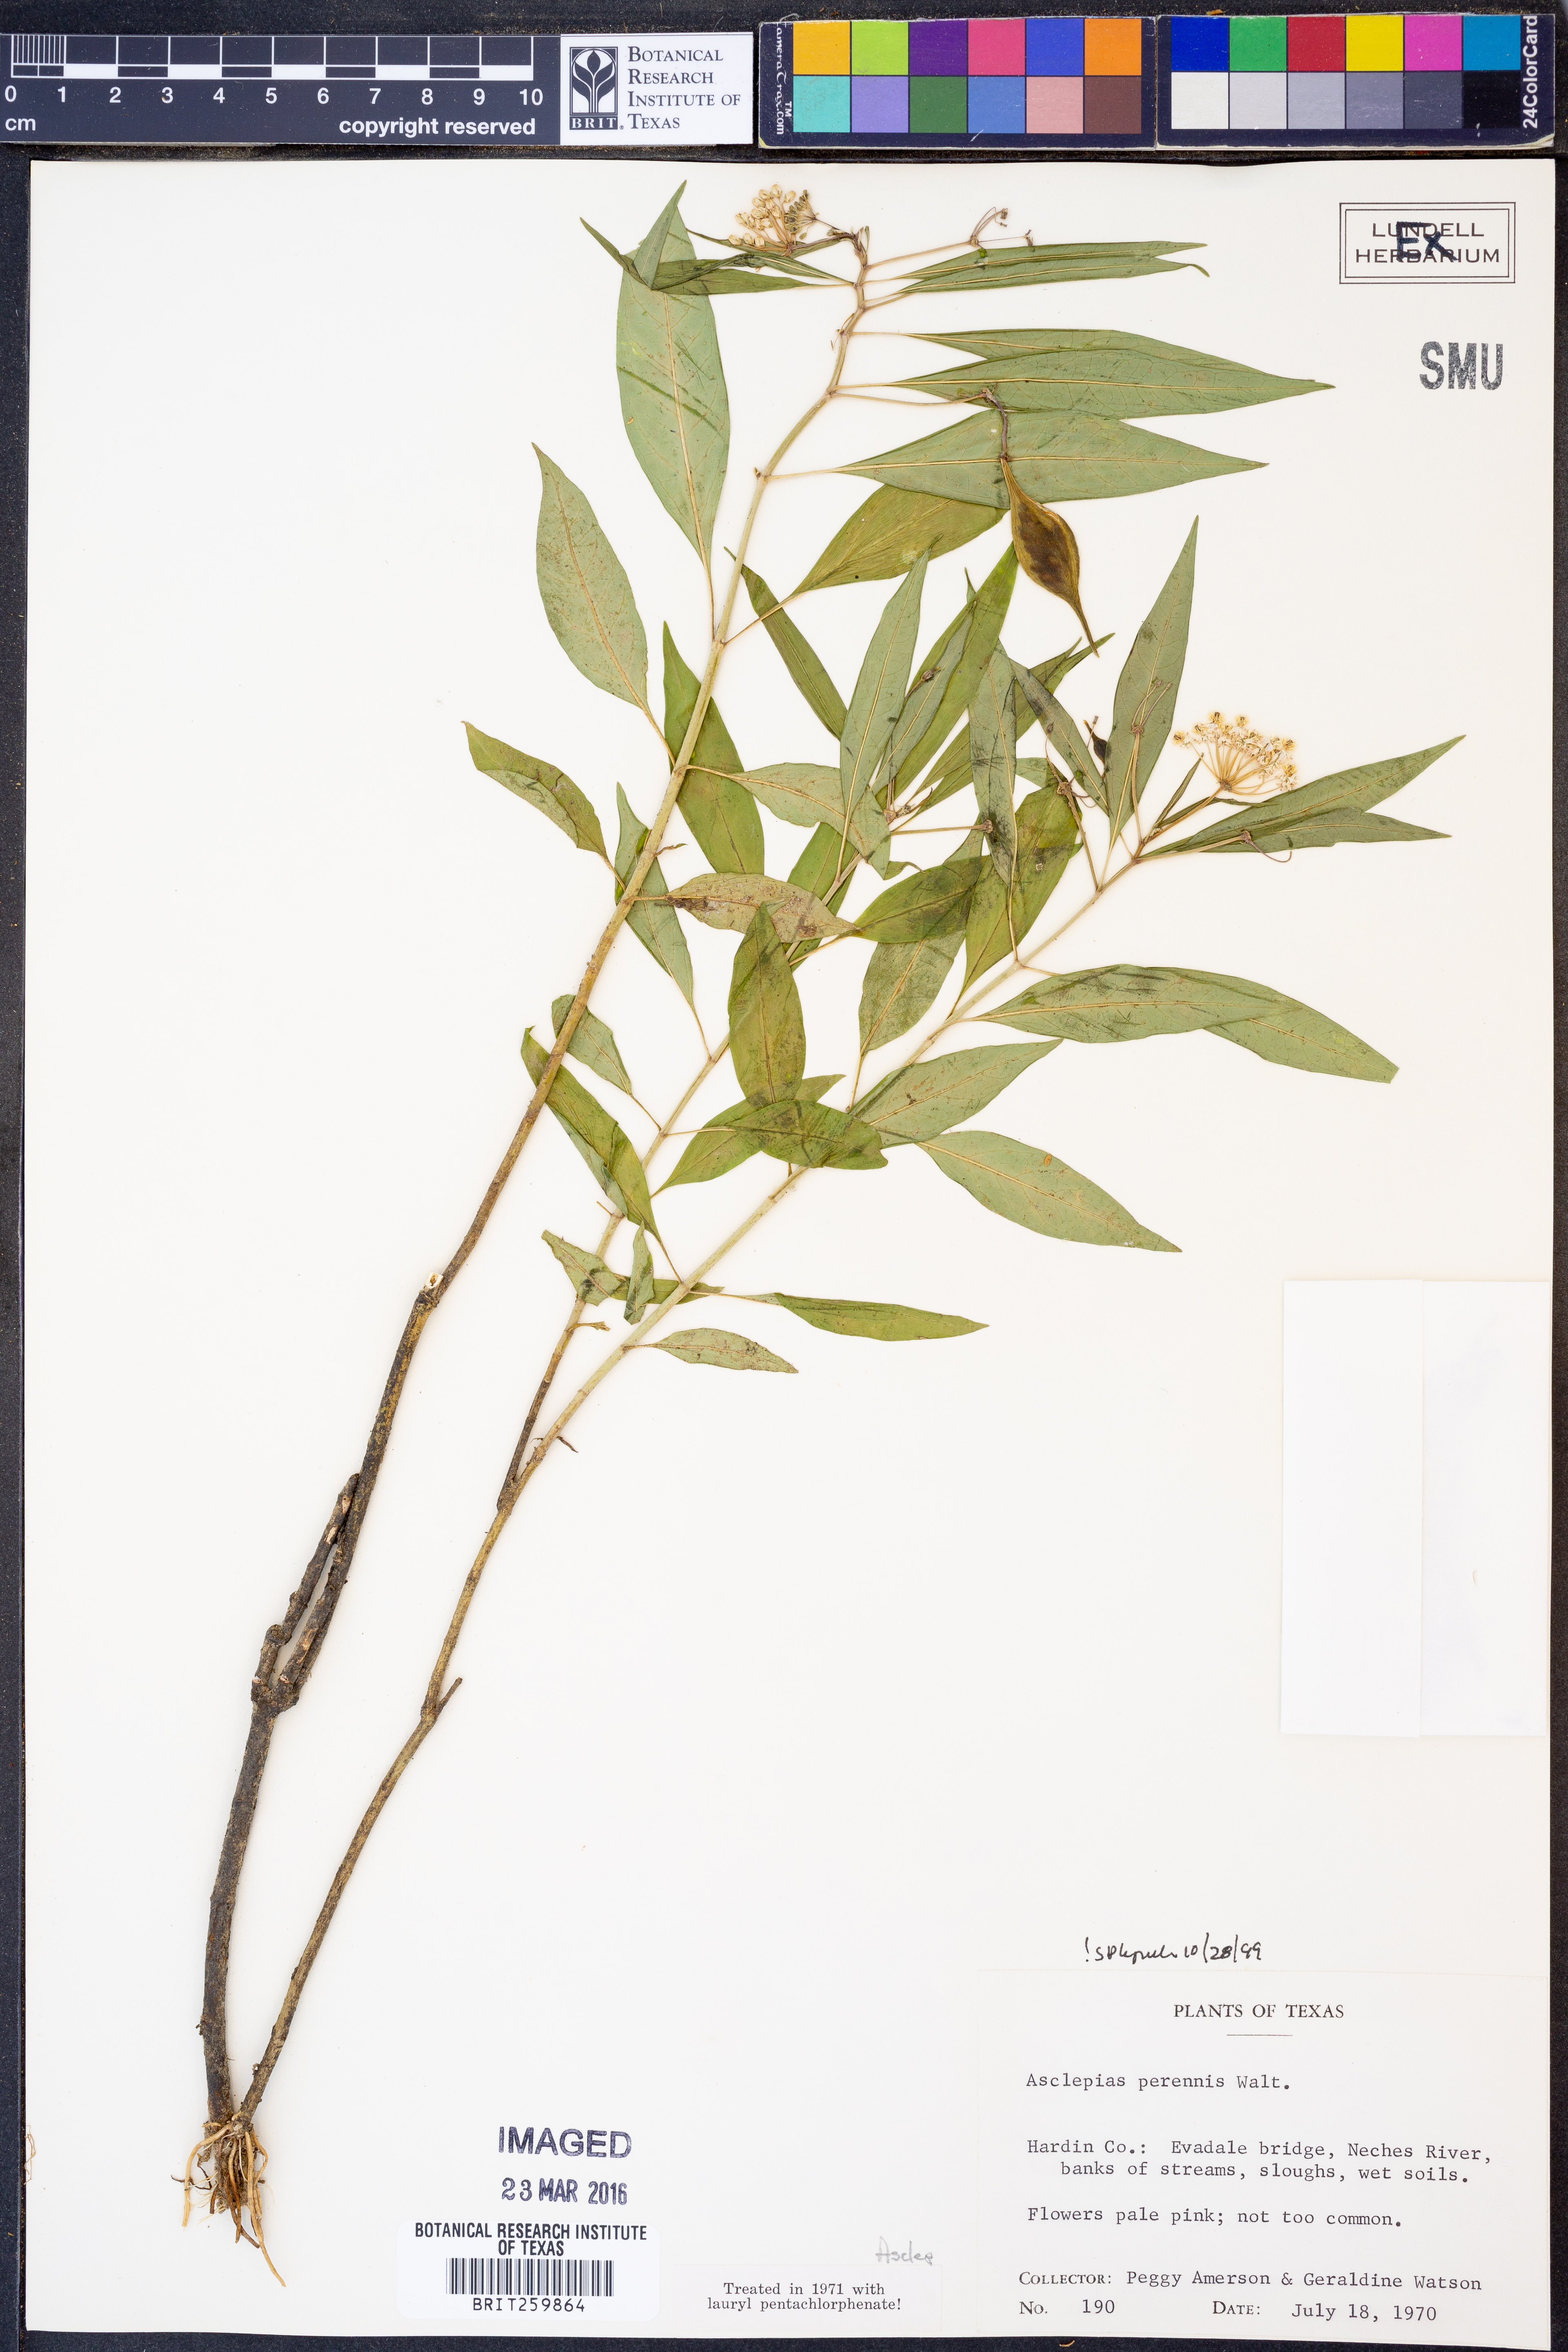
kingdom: Plantae
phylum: Tracheophyta
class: Magnoliopsida
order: Gentianales
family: Apocynaceae
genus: Asclepias
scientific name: Asclepias perennis
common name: Smooth-seed milkweed
